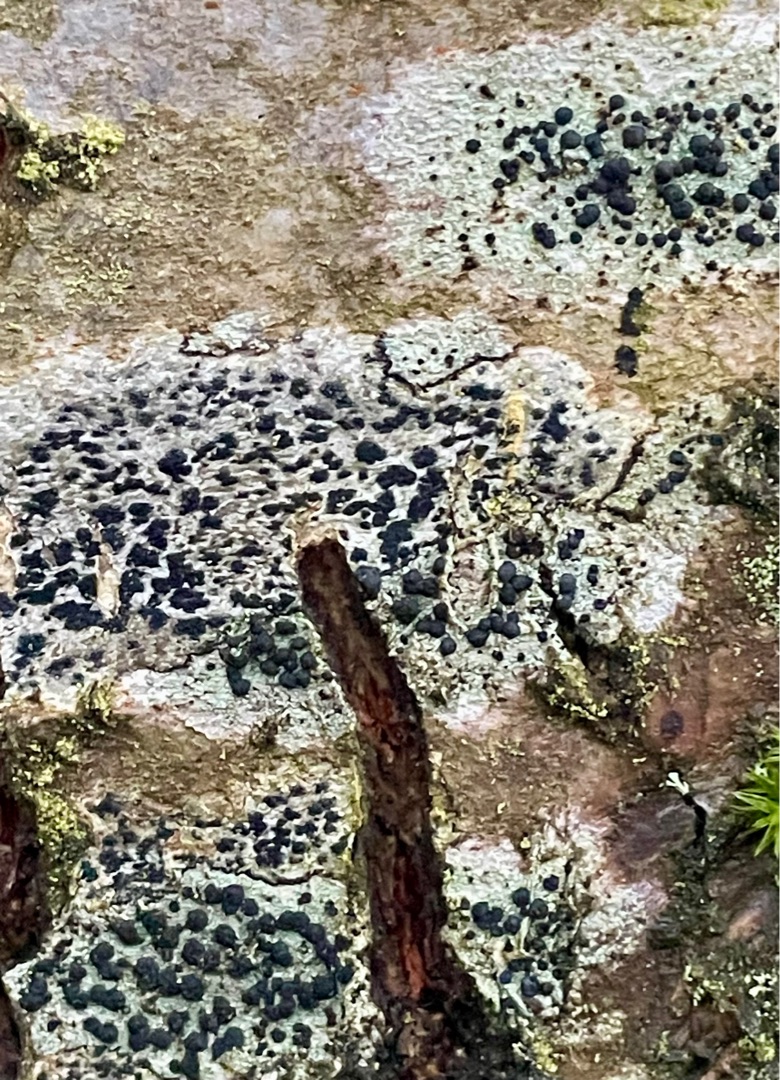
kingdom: Fungi
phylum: Ascomycota
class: Lecanoromycetes
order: Lecanorales
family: Lecanoraceae
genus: Lecidella
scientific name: Lecidella elaeochroma
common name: Grågrøn skivelav
